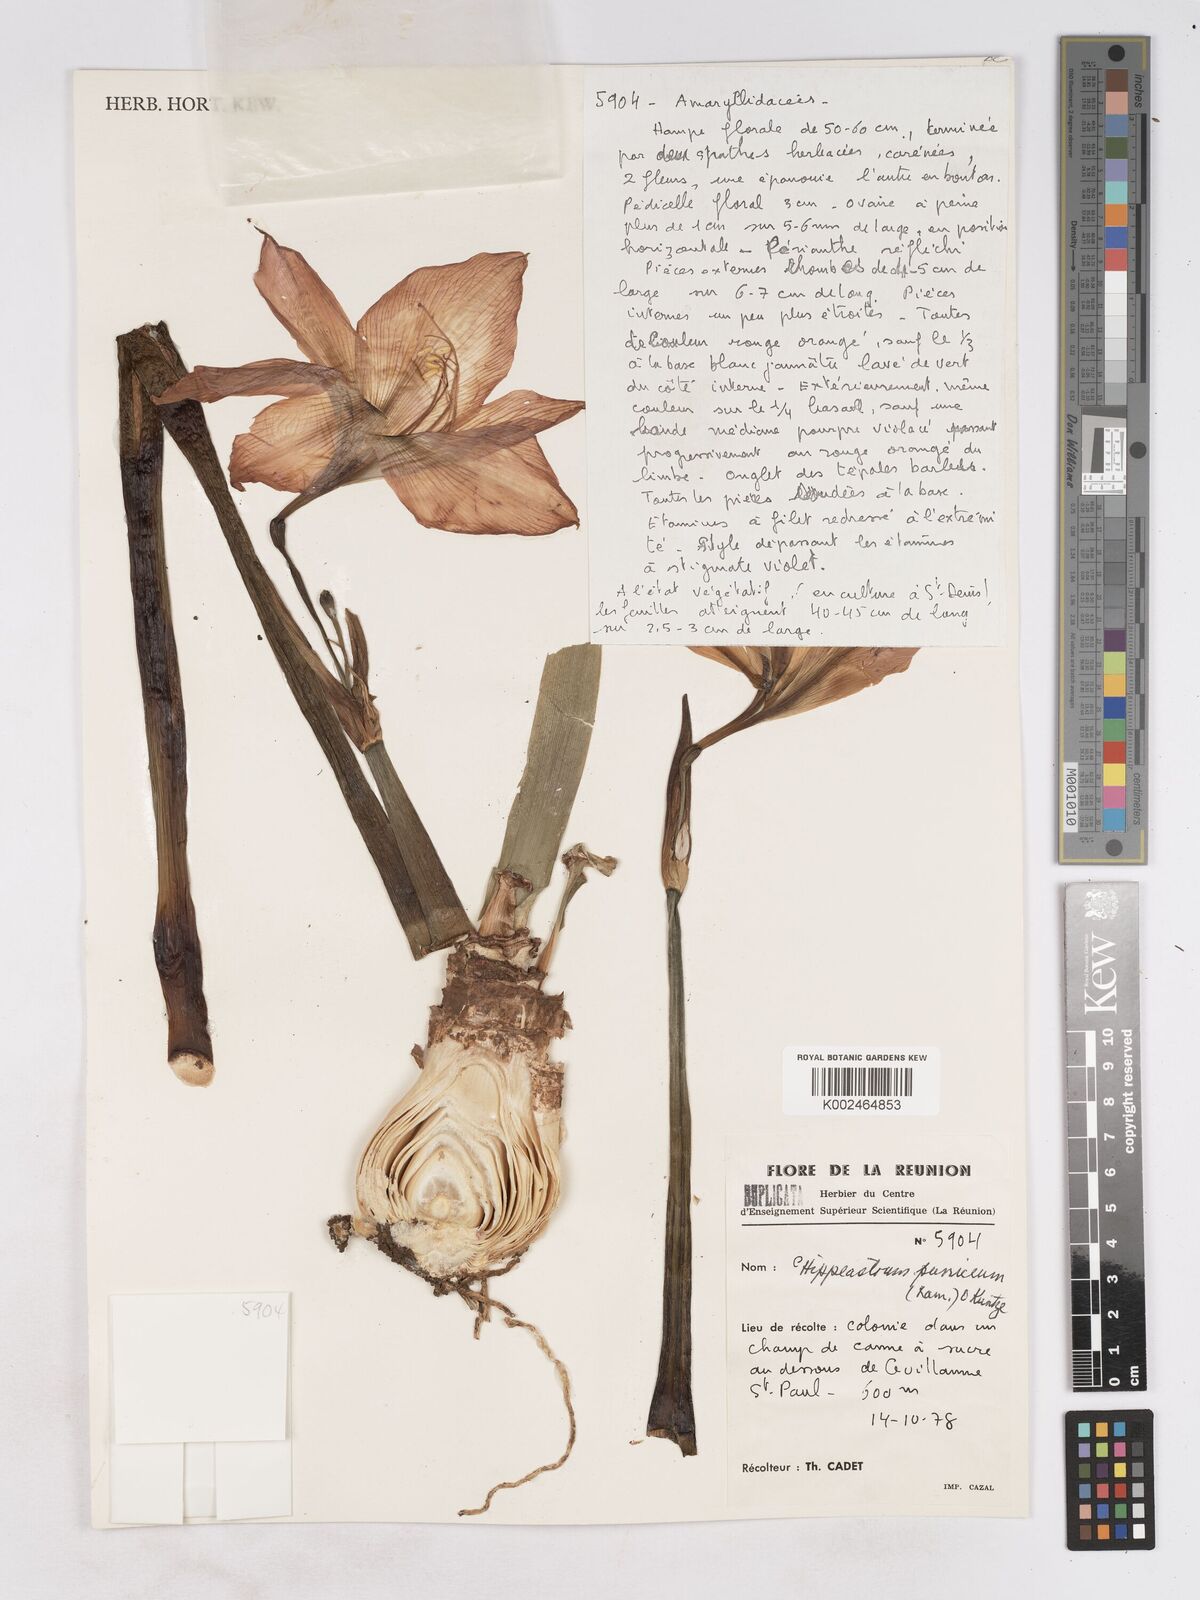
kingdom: Plantae
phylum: Tracheophyta
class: Liliopsida
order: Asparagales
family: Amaryllidaceae
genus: Hippeastrum
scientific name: Hippeastrum puniceum
